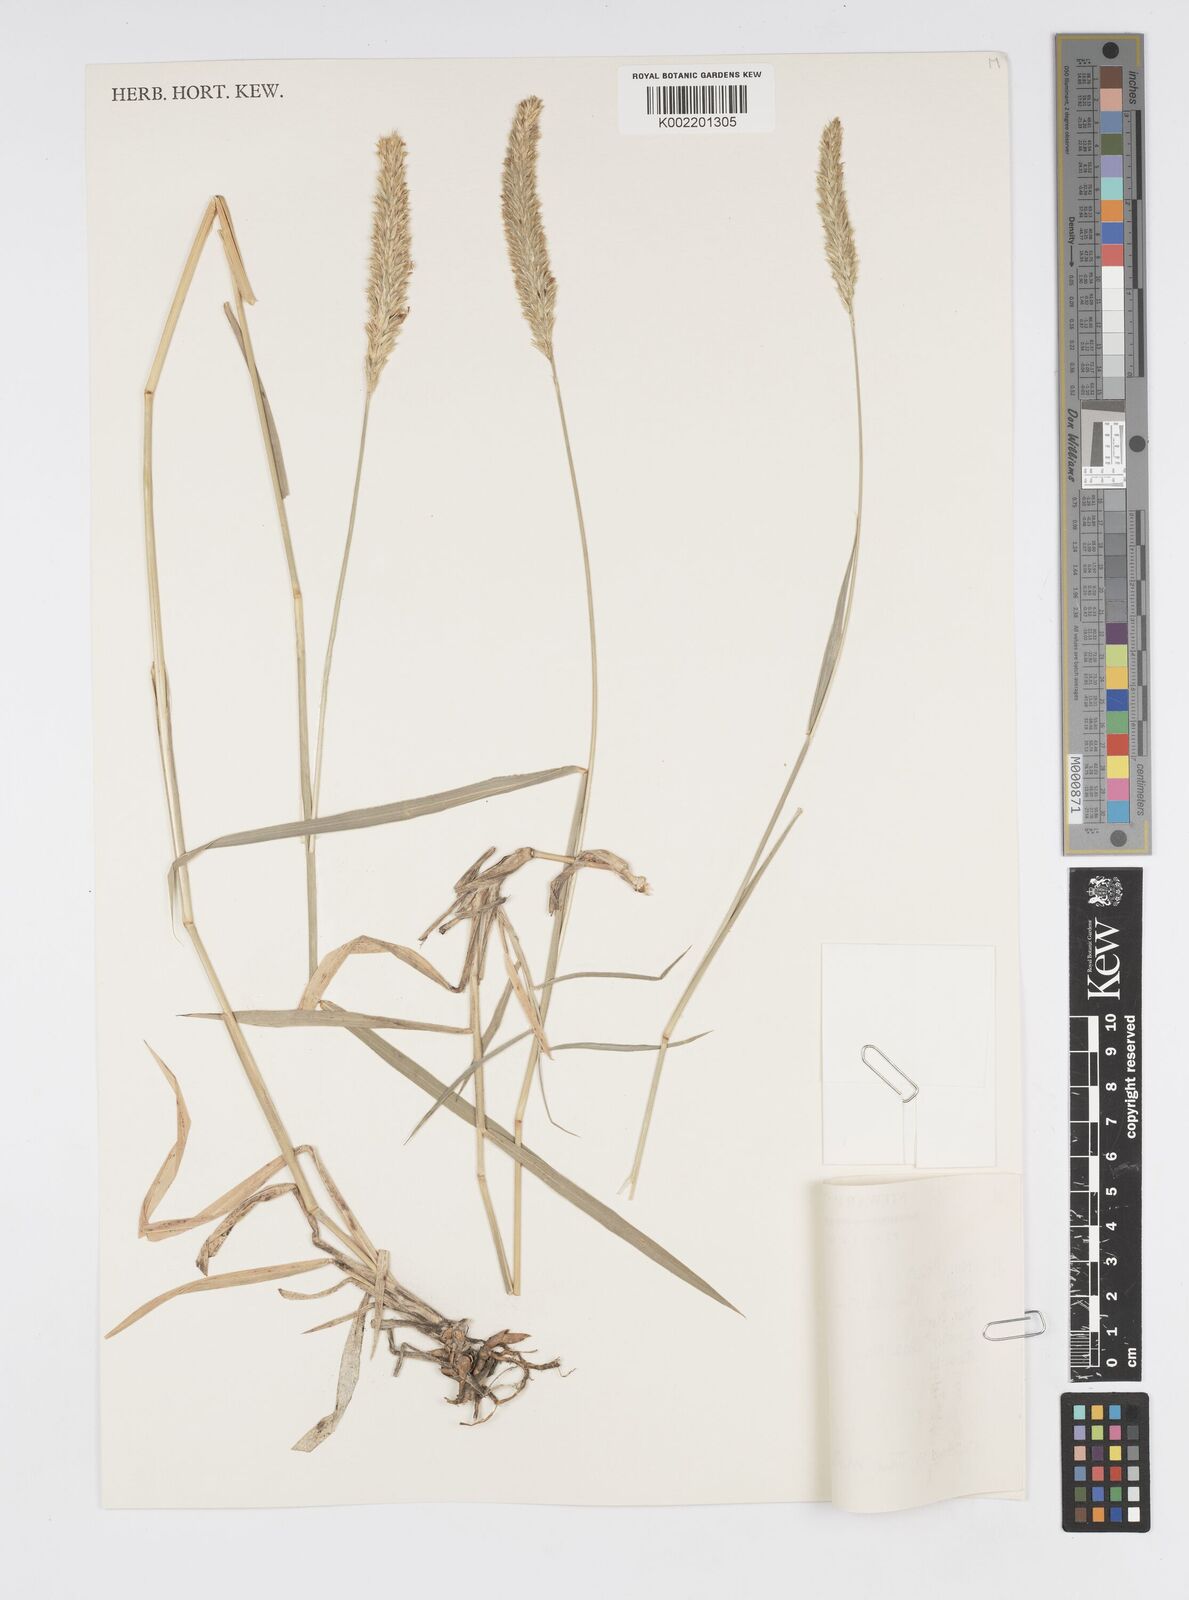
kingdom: Plantae
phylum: Tracheophyta
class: Liliopsida
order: Poales
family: Poaceae
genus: Cenchrus
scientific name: Cenchrus lanatus
